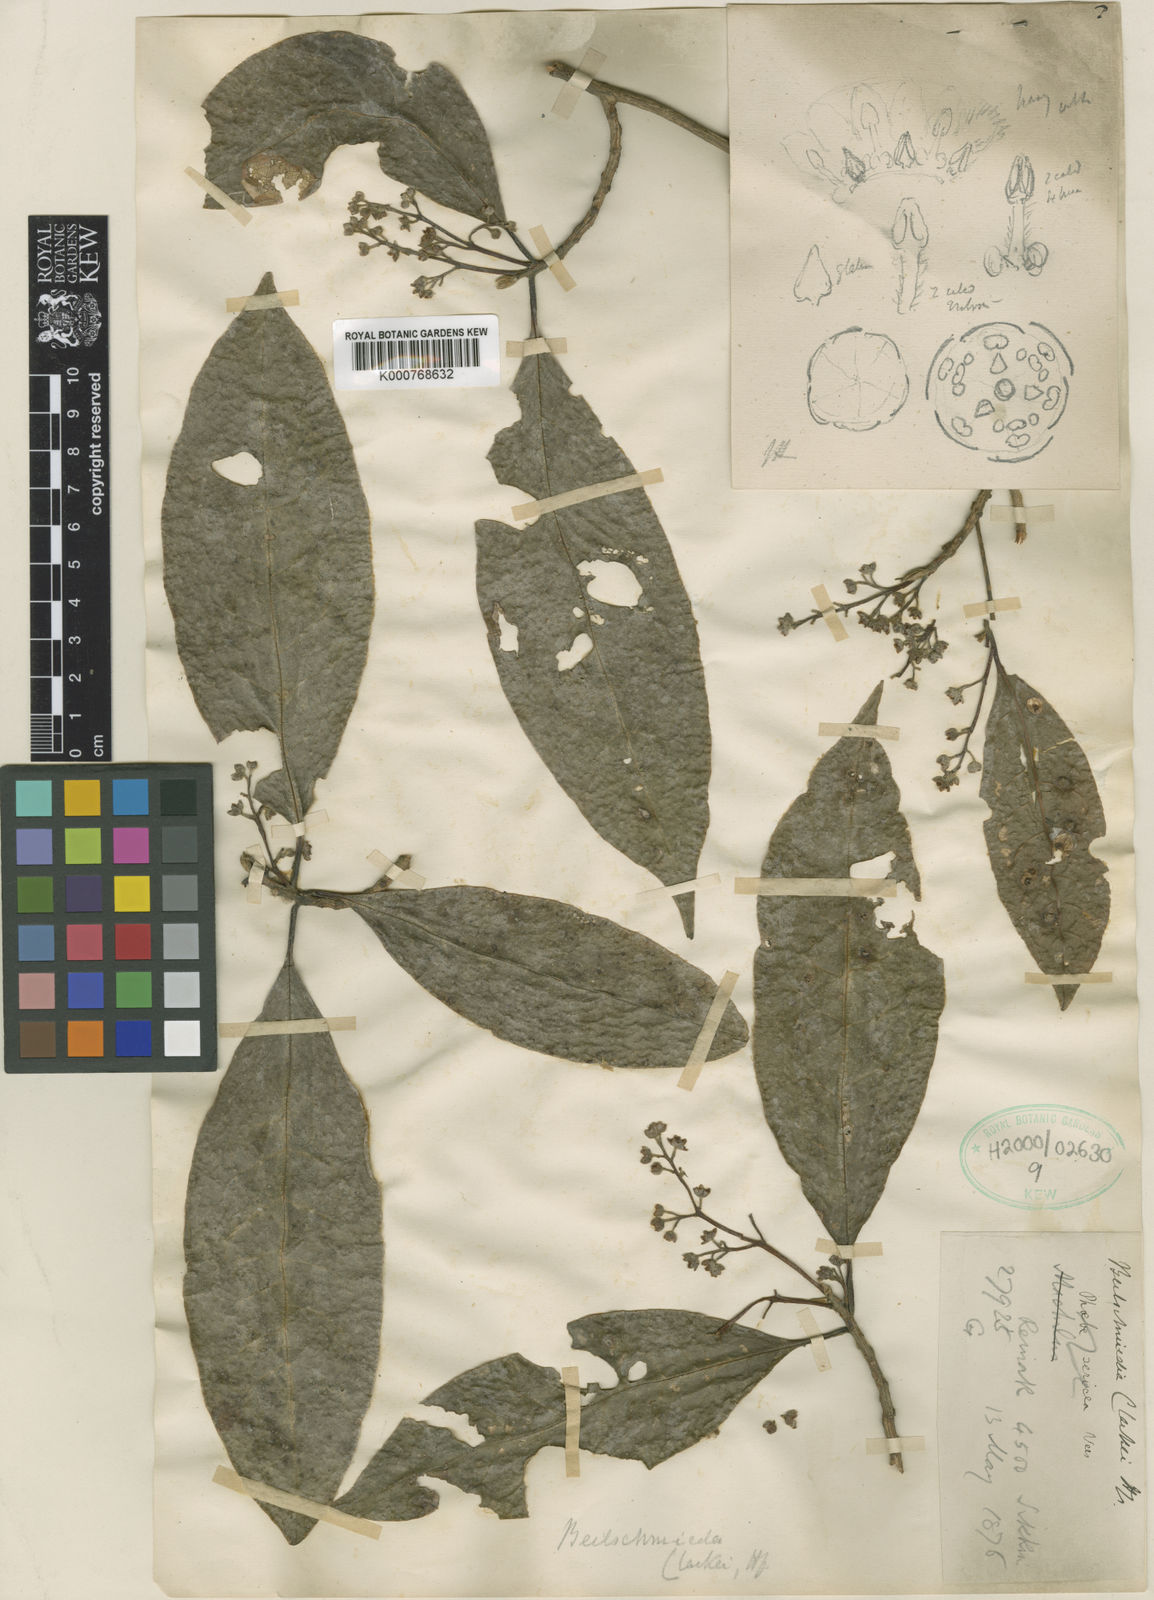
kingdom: Plantae
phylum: Tracheophyta
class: Magnoliopsida
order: Laurales
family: Lauraceae
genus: Beilschmiedia
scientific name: Beilschmiedia clarkei
